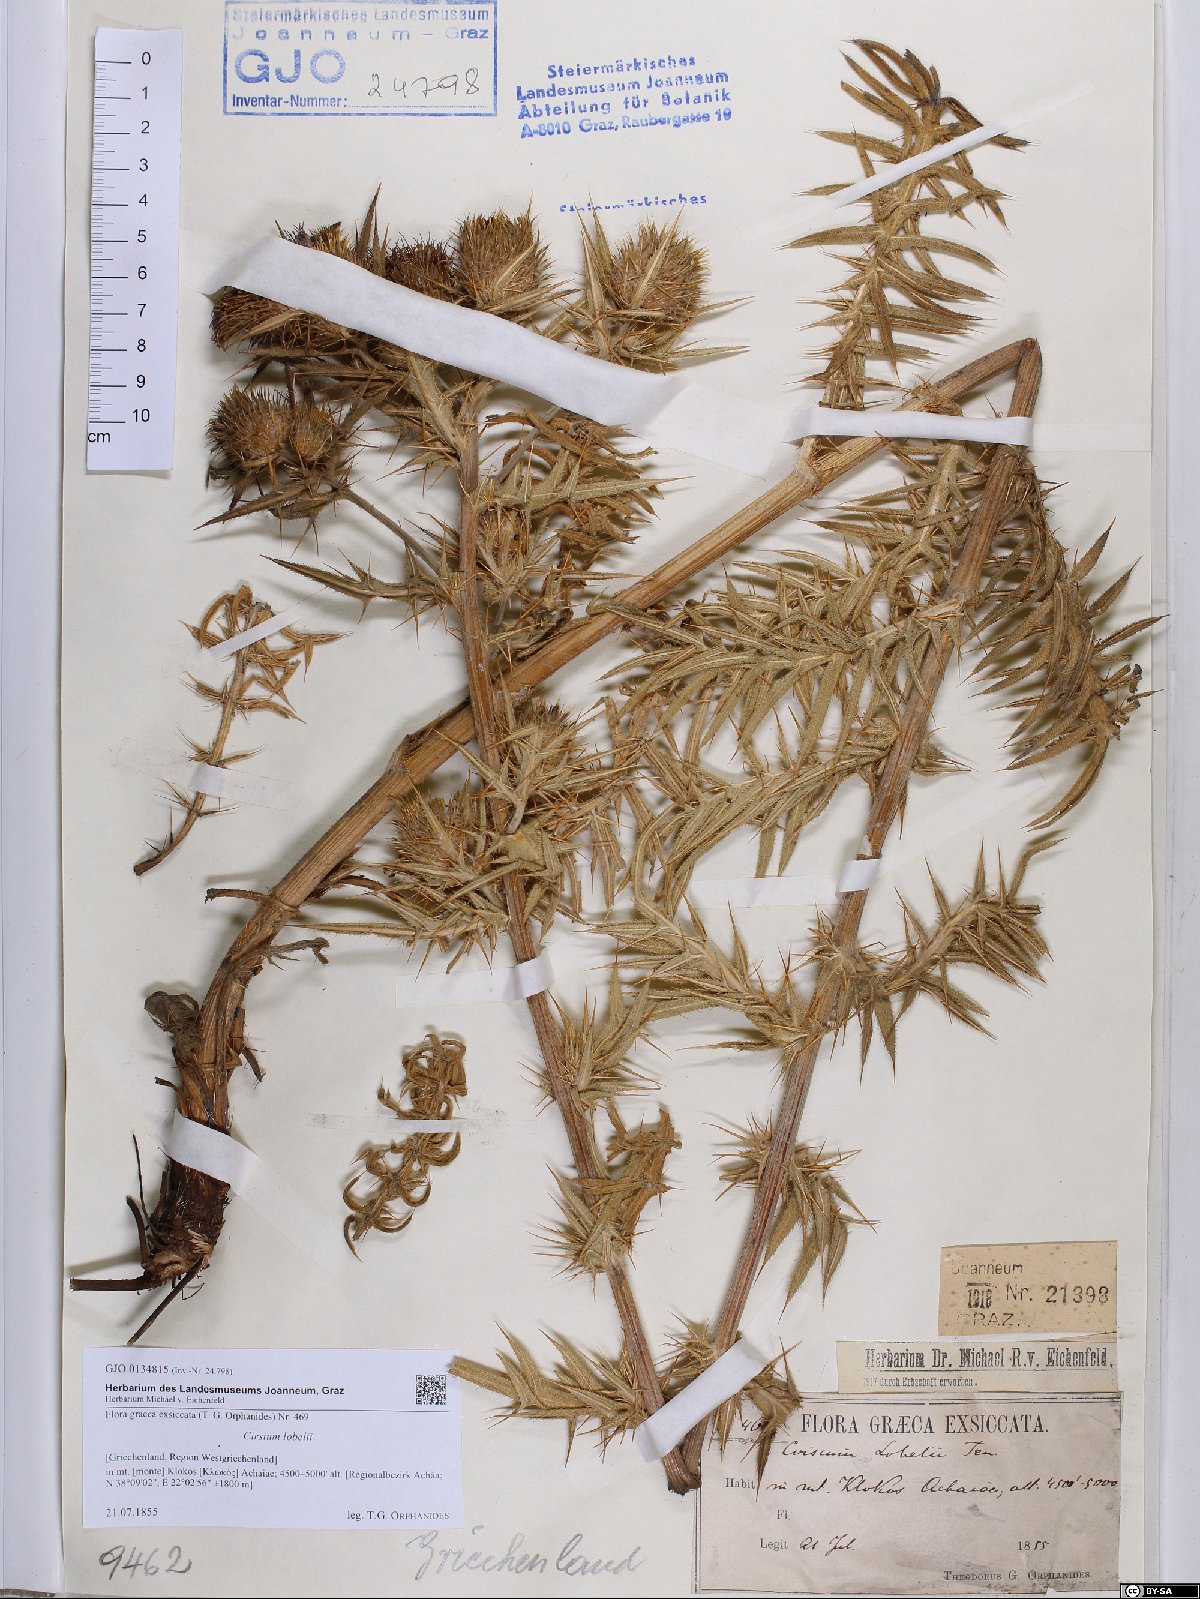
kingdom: Plantae
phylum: Tracheophyta
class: Magnoliopsida
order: Asterales
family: Asteraceae
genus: Lophiolepis
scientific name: Lophiolepis lobelii
